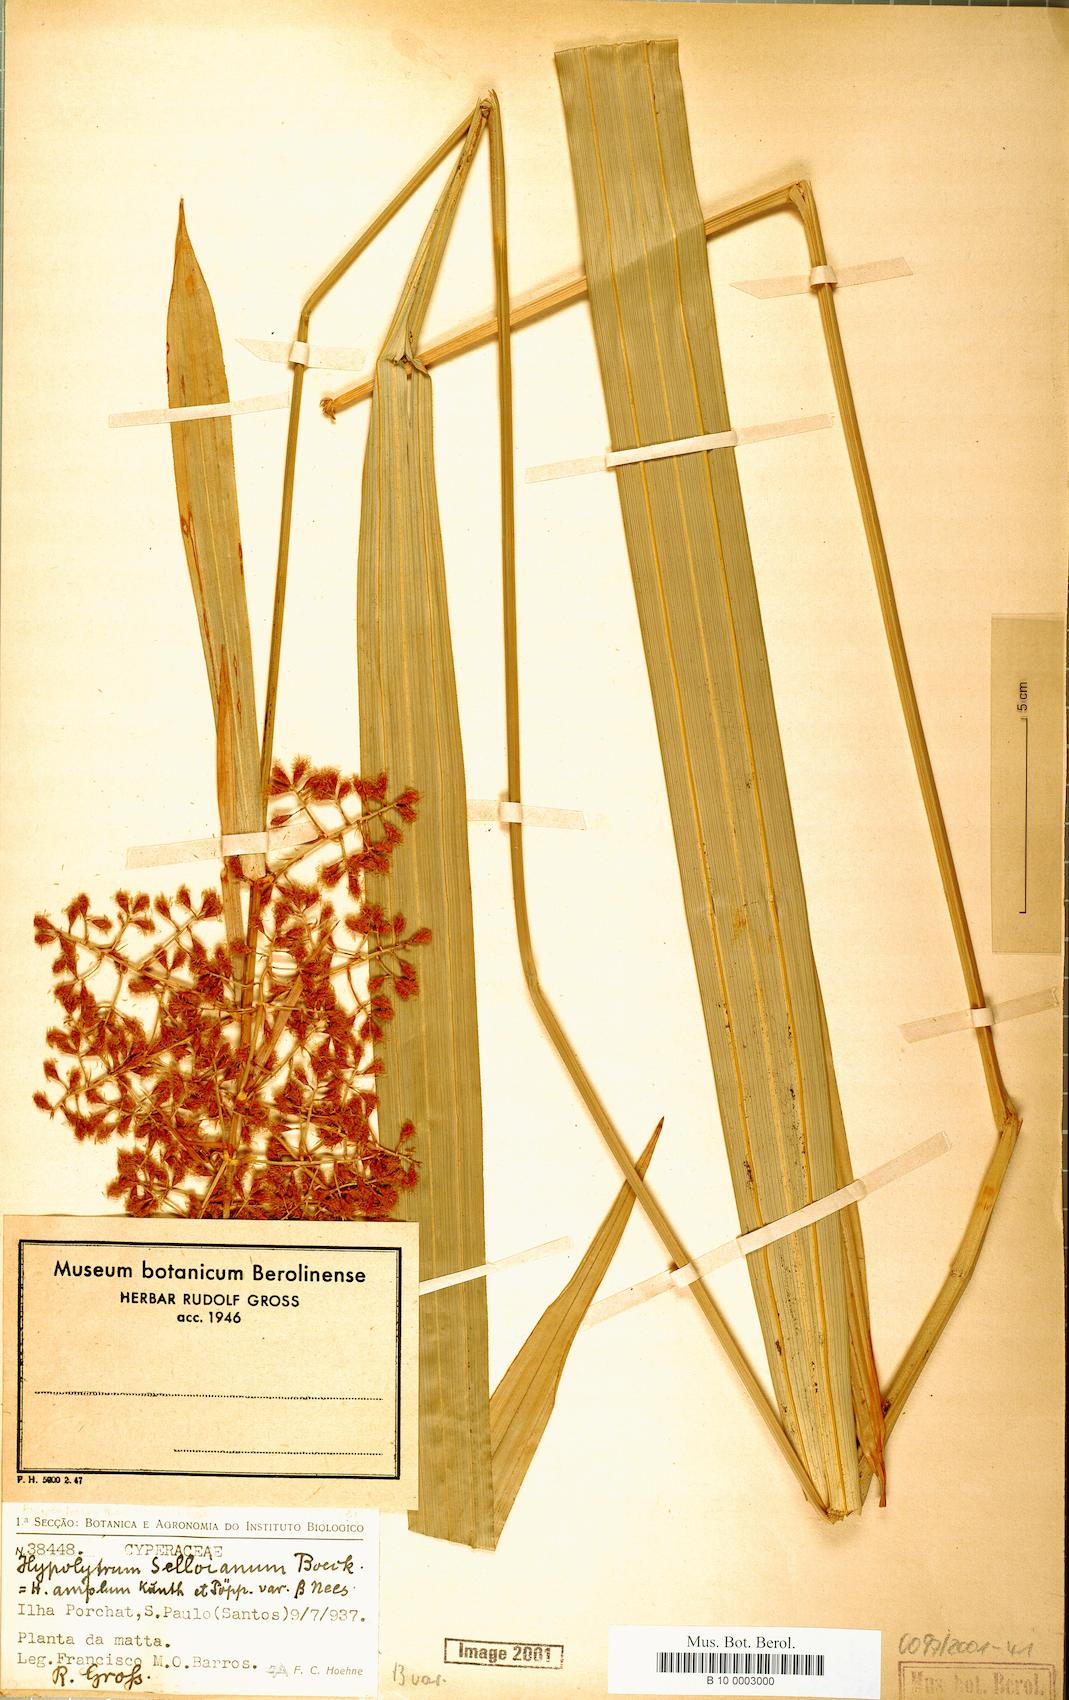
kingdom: Plantae
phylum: Tracheophyta
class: Liliopsida
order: Poales
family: Cyperaceae
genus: Hypolytrum
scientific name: Hypolytrum schraderianum
